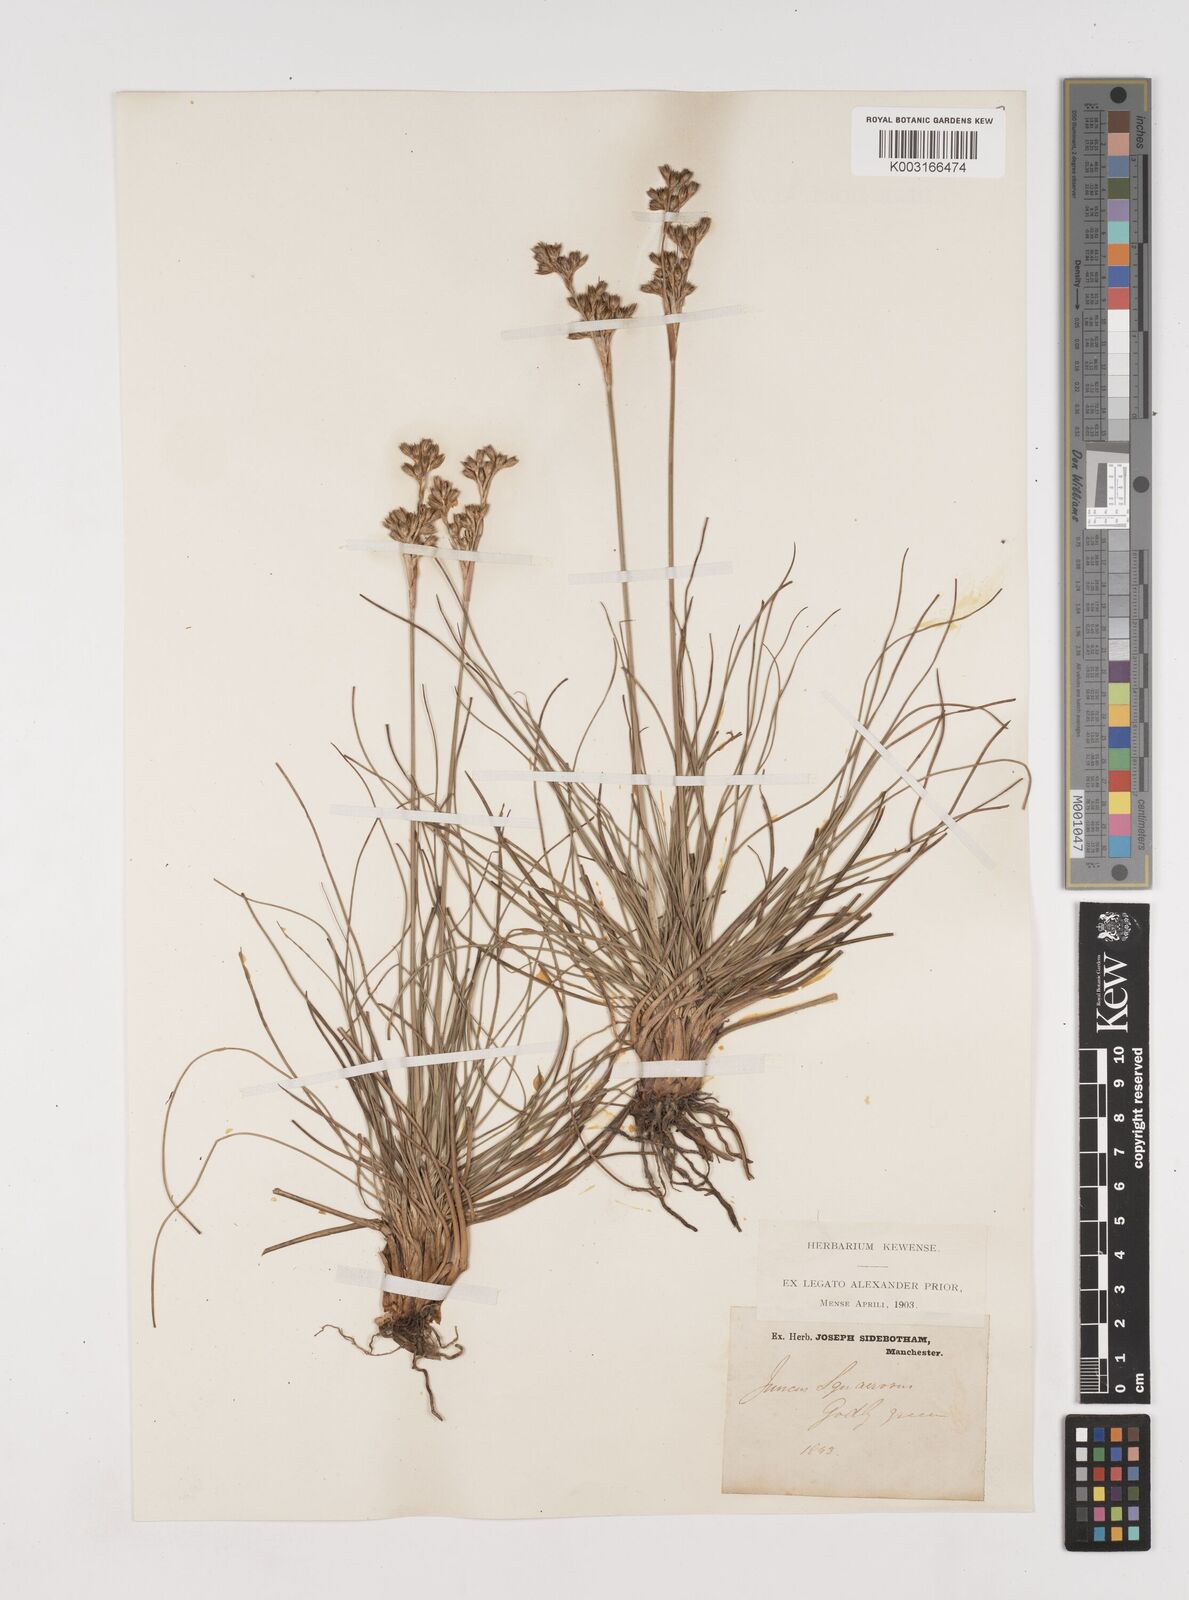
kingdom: Plantae
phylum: Tracheophyta
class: Liliopsida
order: Poales
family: Juncaceae
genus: Juncus
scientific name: Juncus squarrosus
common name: Heath rush
